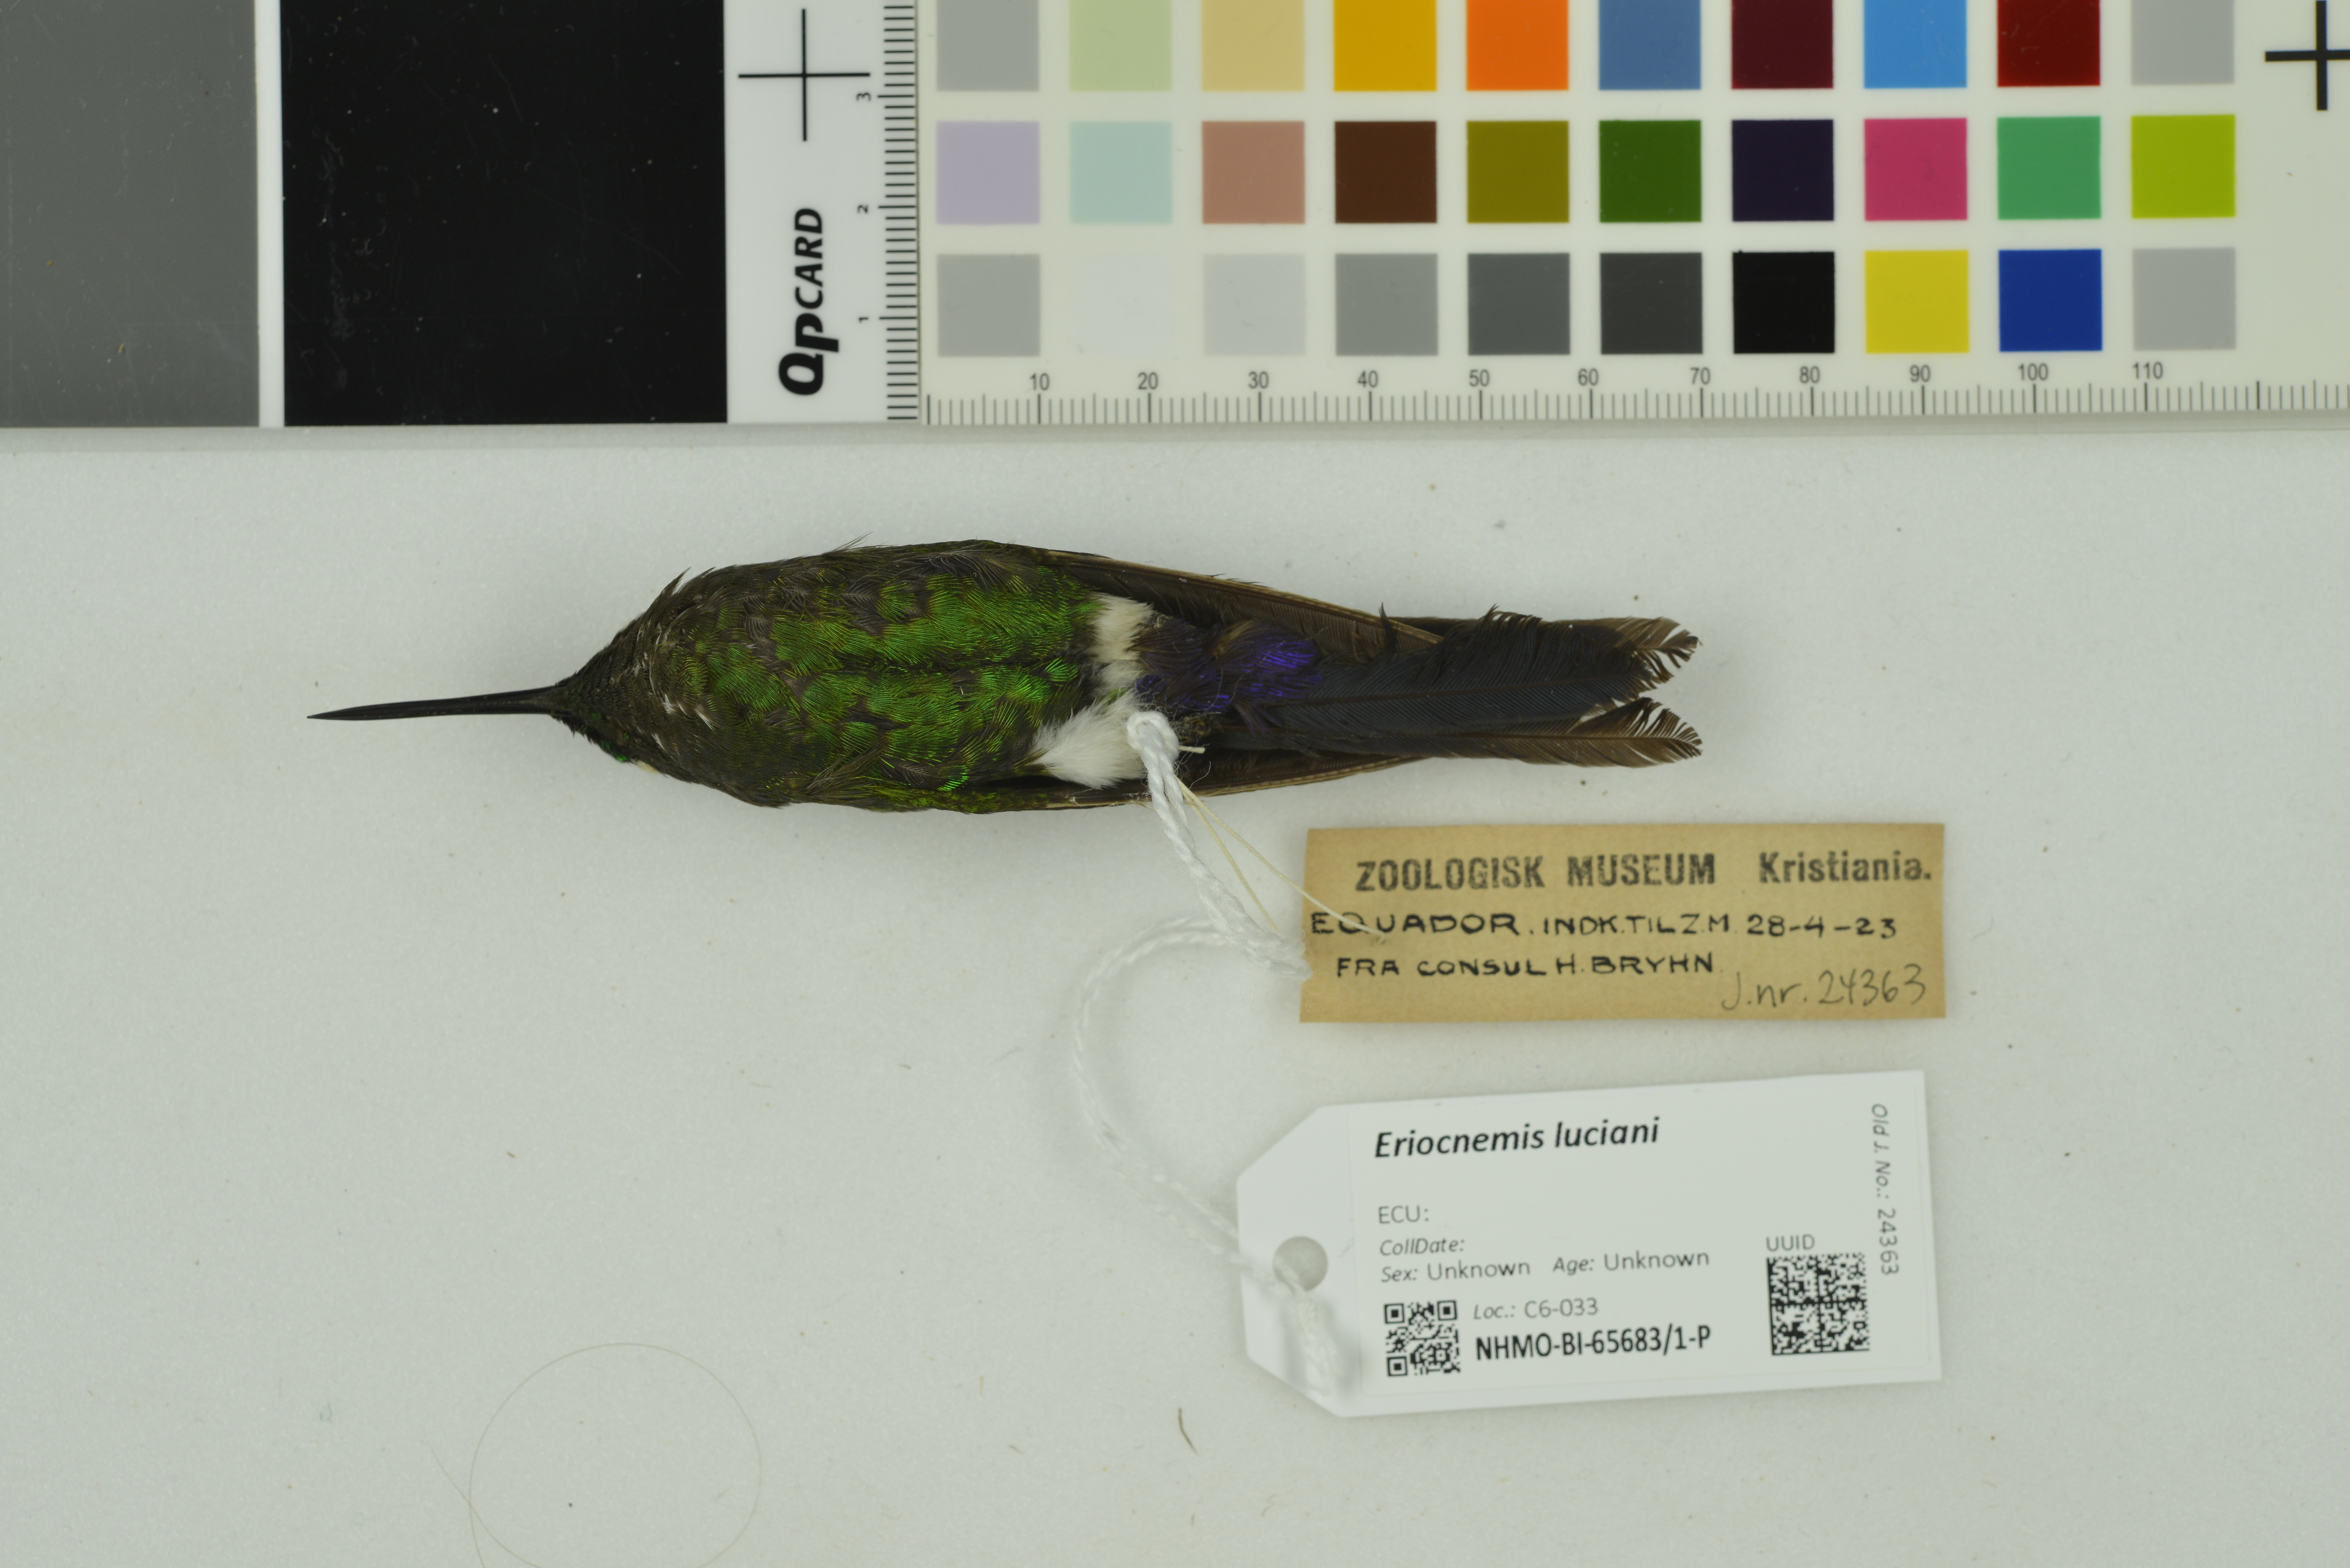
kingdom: Animalia
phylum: Chordata
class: Aves
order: Apodiformes
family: Trochilidae
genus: Eriocnemis
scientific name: Eriocnemis luciani
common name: Sapphire-vented puffleg
